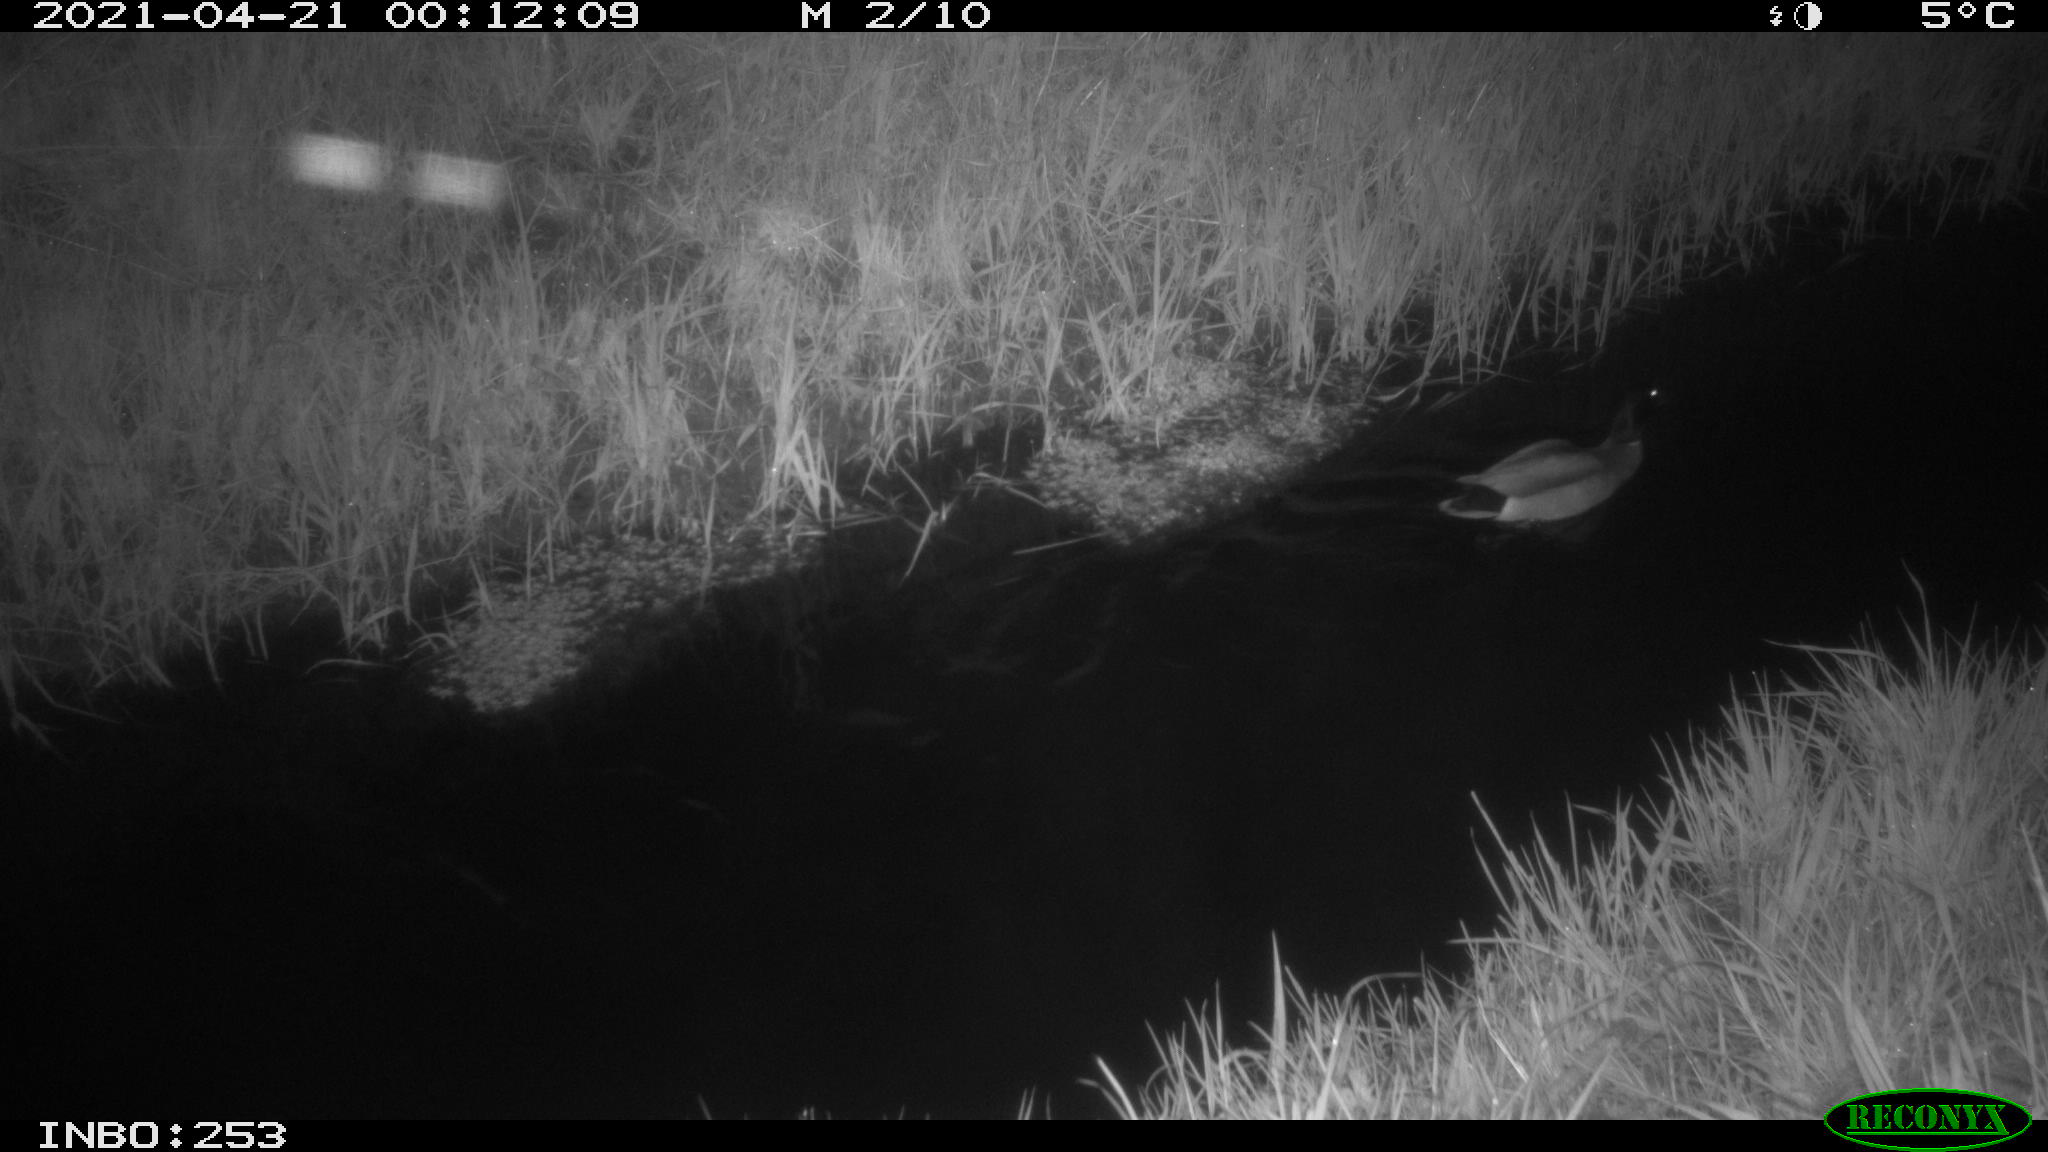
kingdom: Animalia
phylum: Chordata
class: Aves
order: Anseriformes
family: Anatidae
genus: Anas
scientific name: Anas platyrhynchos
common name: Mallard
